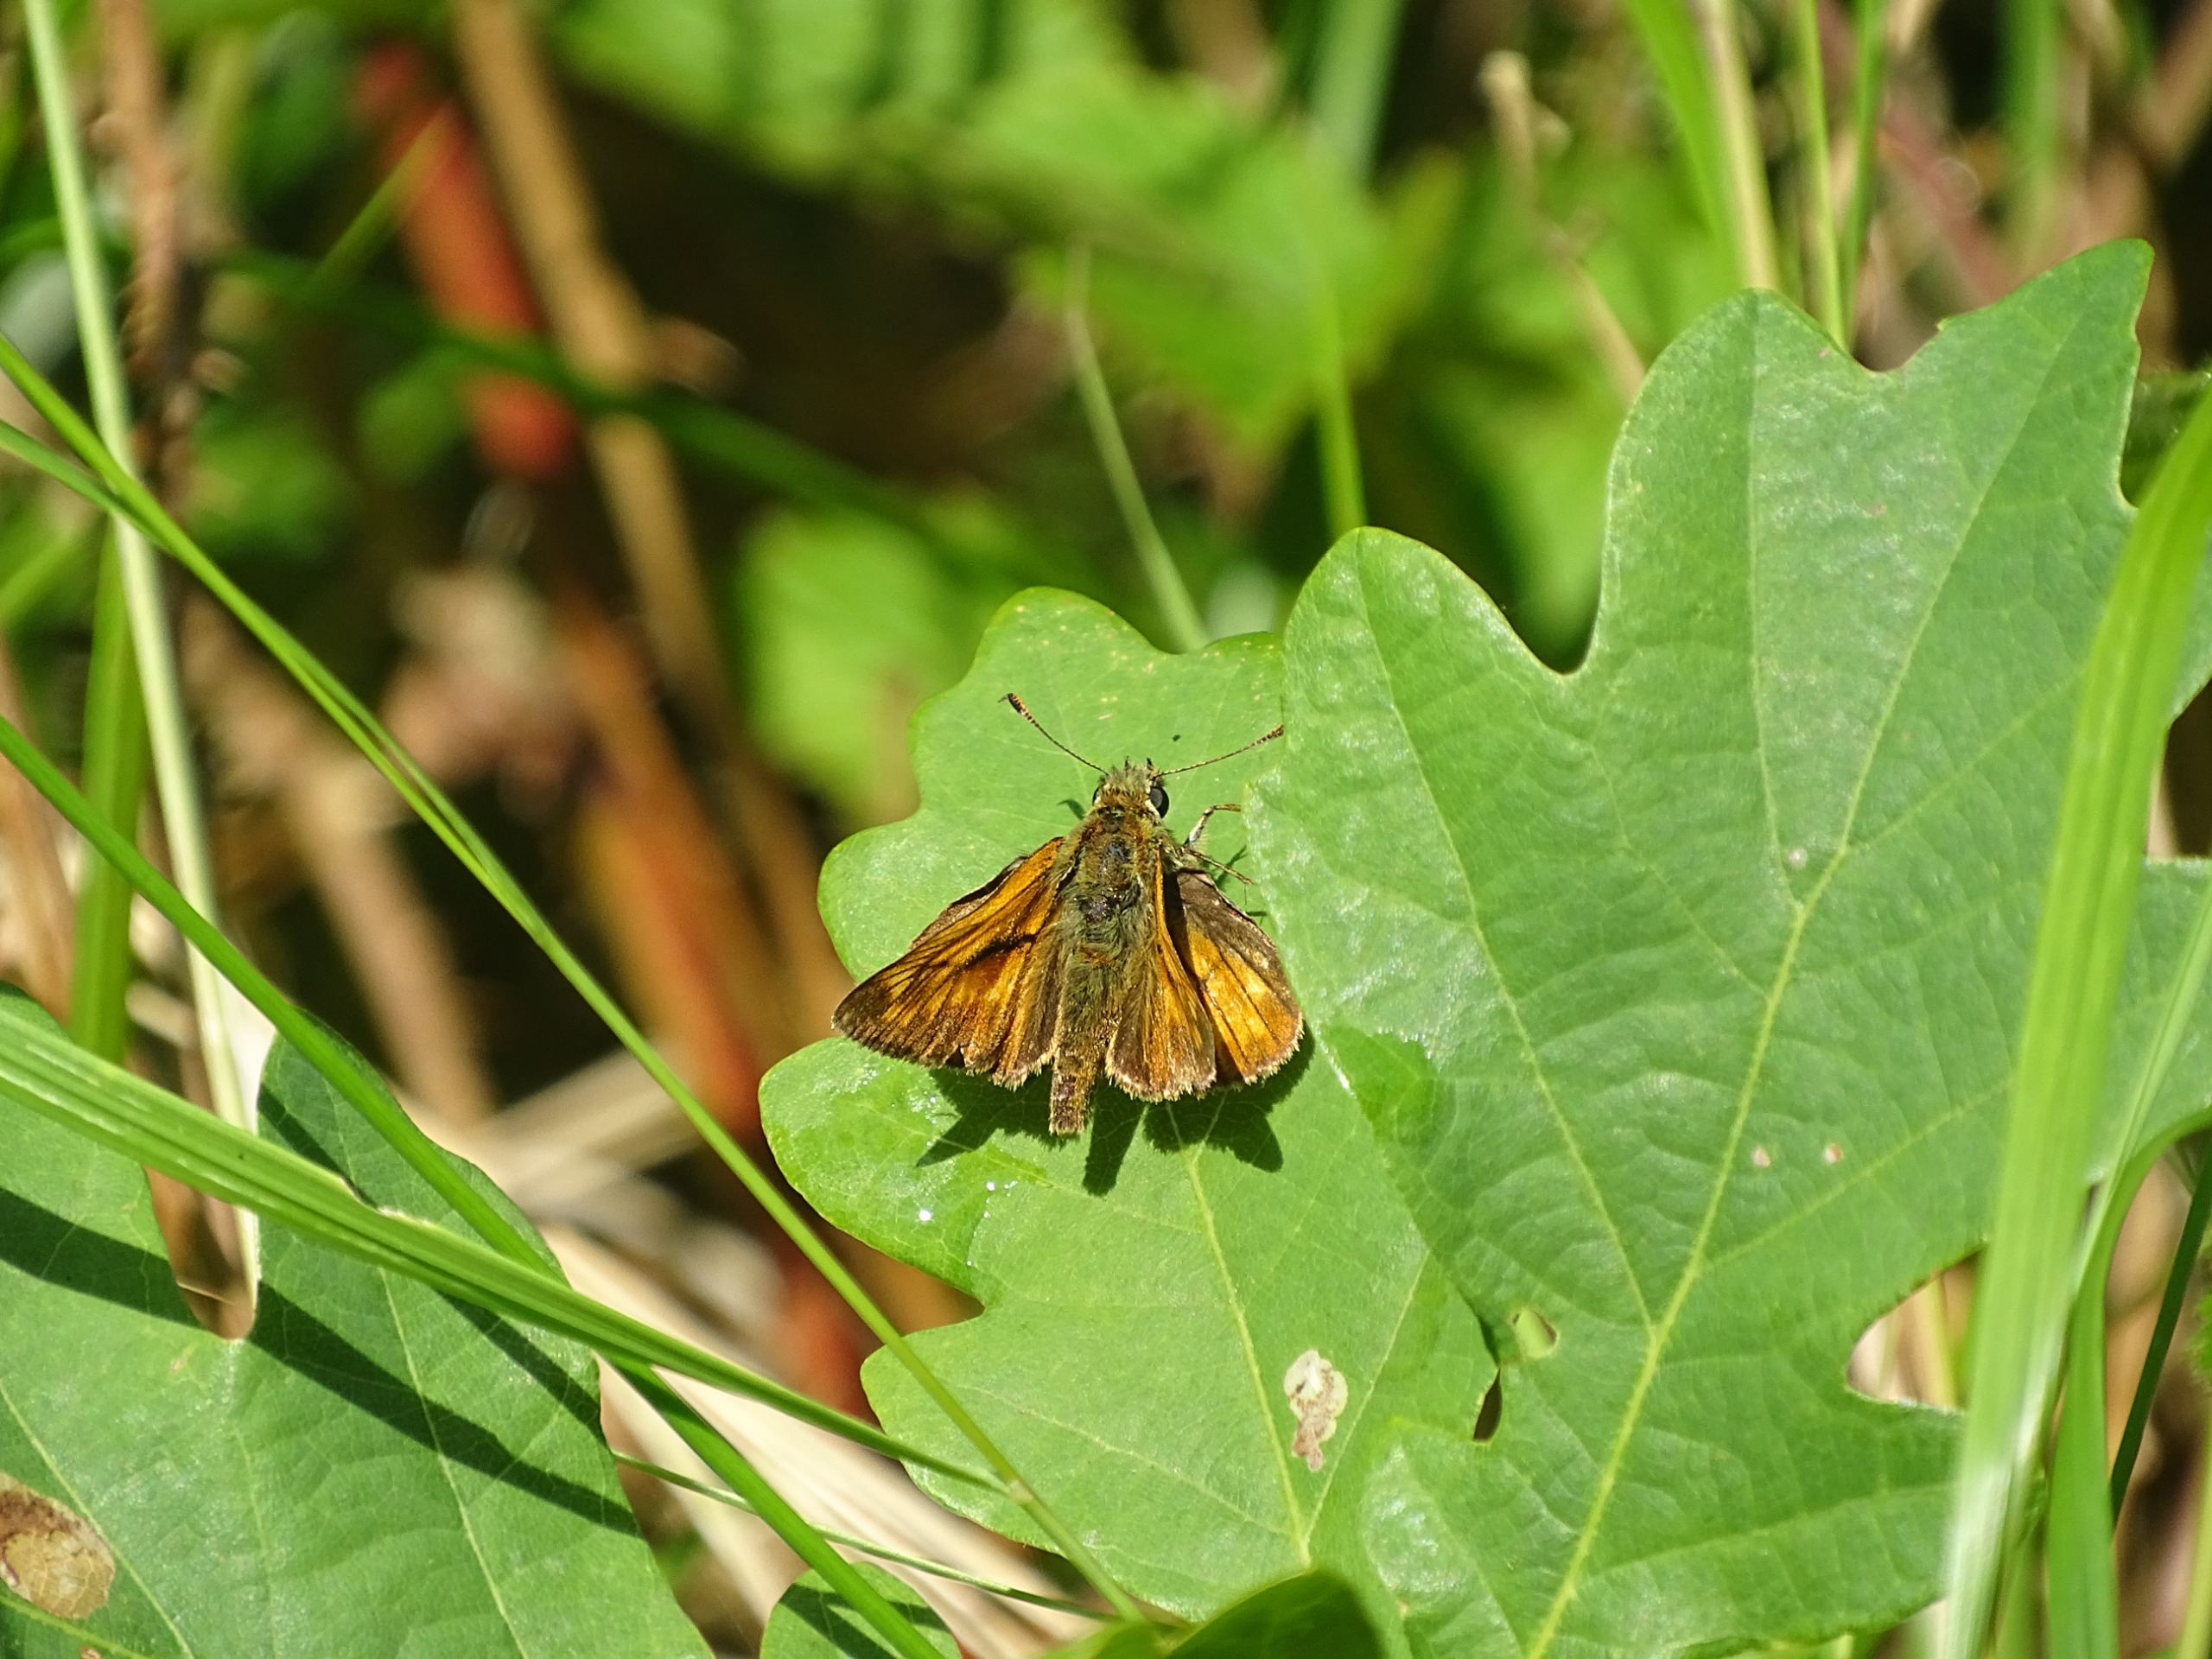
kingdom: Animalia
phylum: Arthropoda
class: Insecta
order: Lepidoptera
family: Hesperiidae
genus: Ochlodes
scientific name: Ochlodes venata
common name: Stor bredpande
